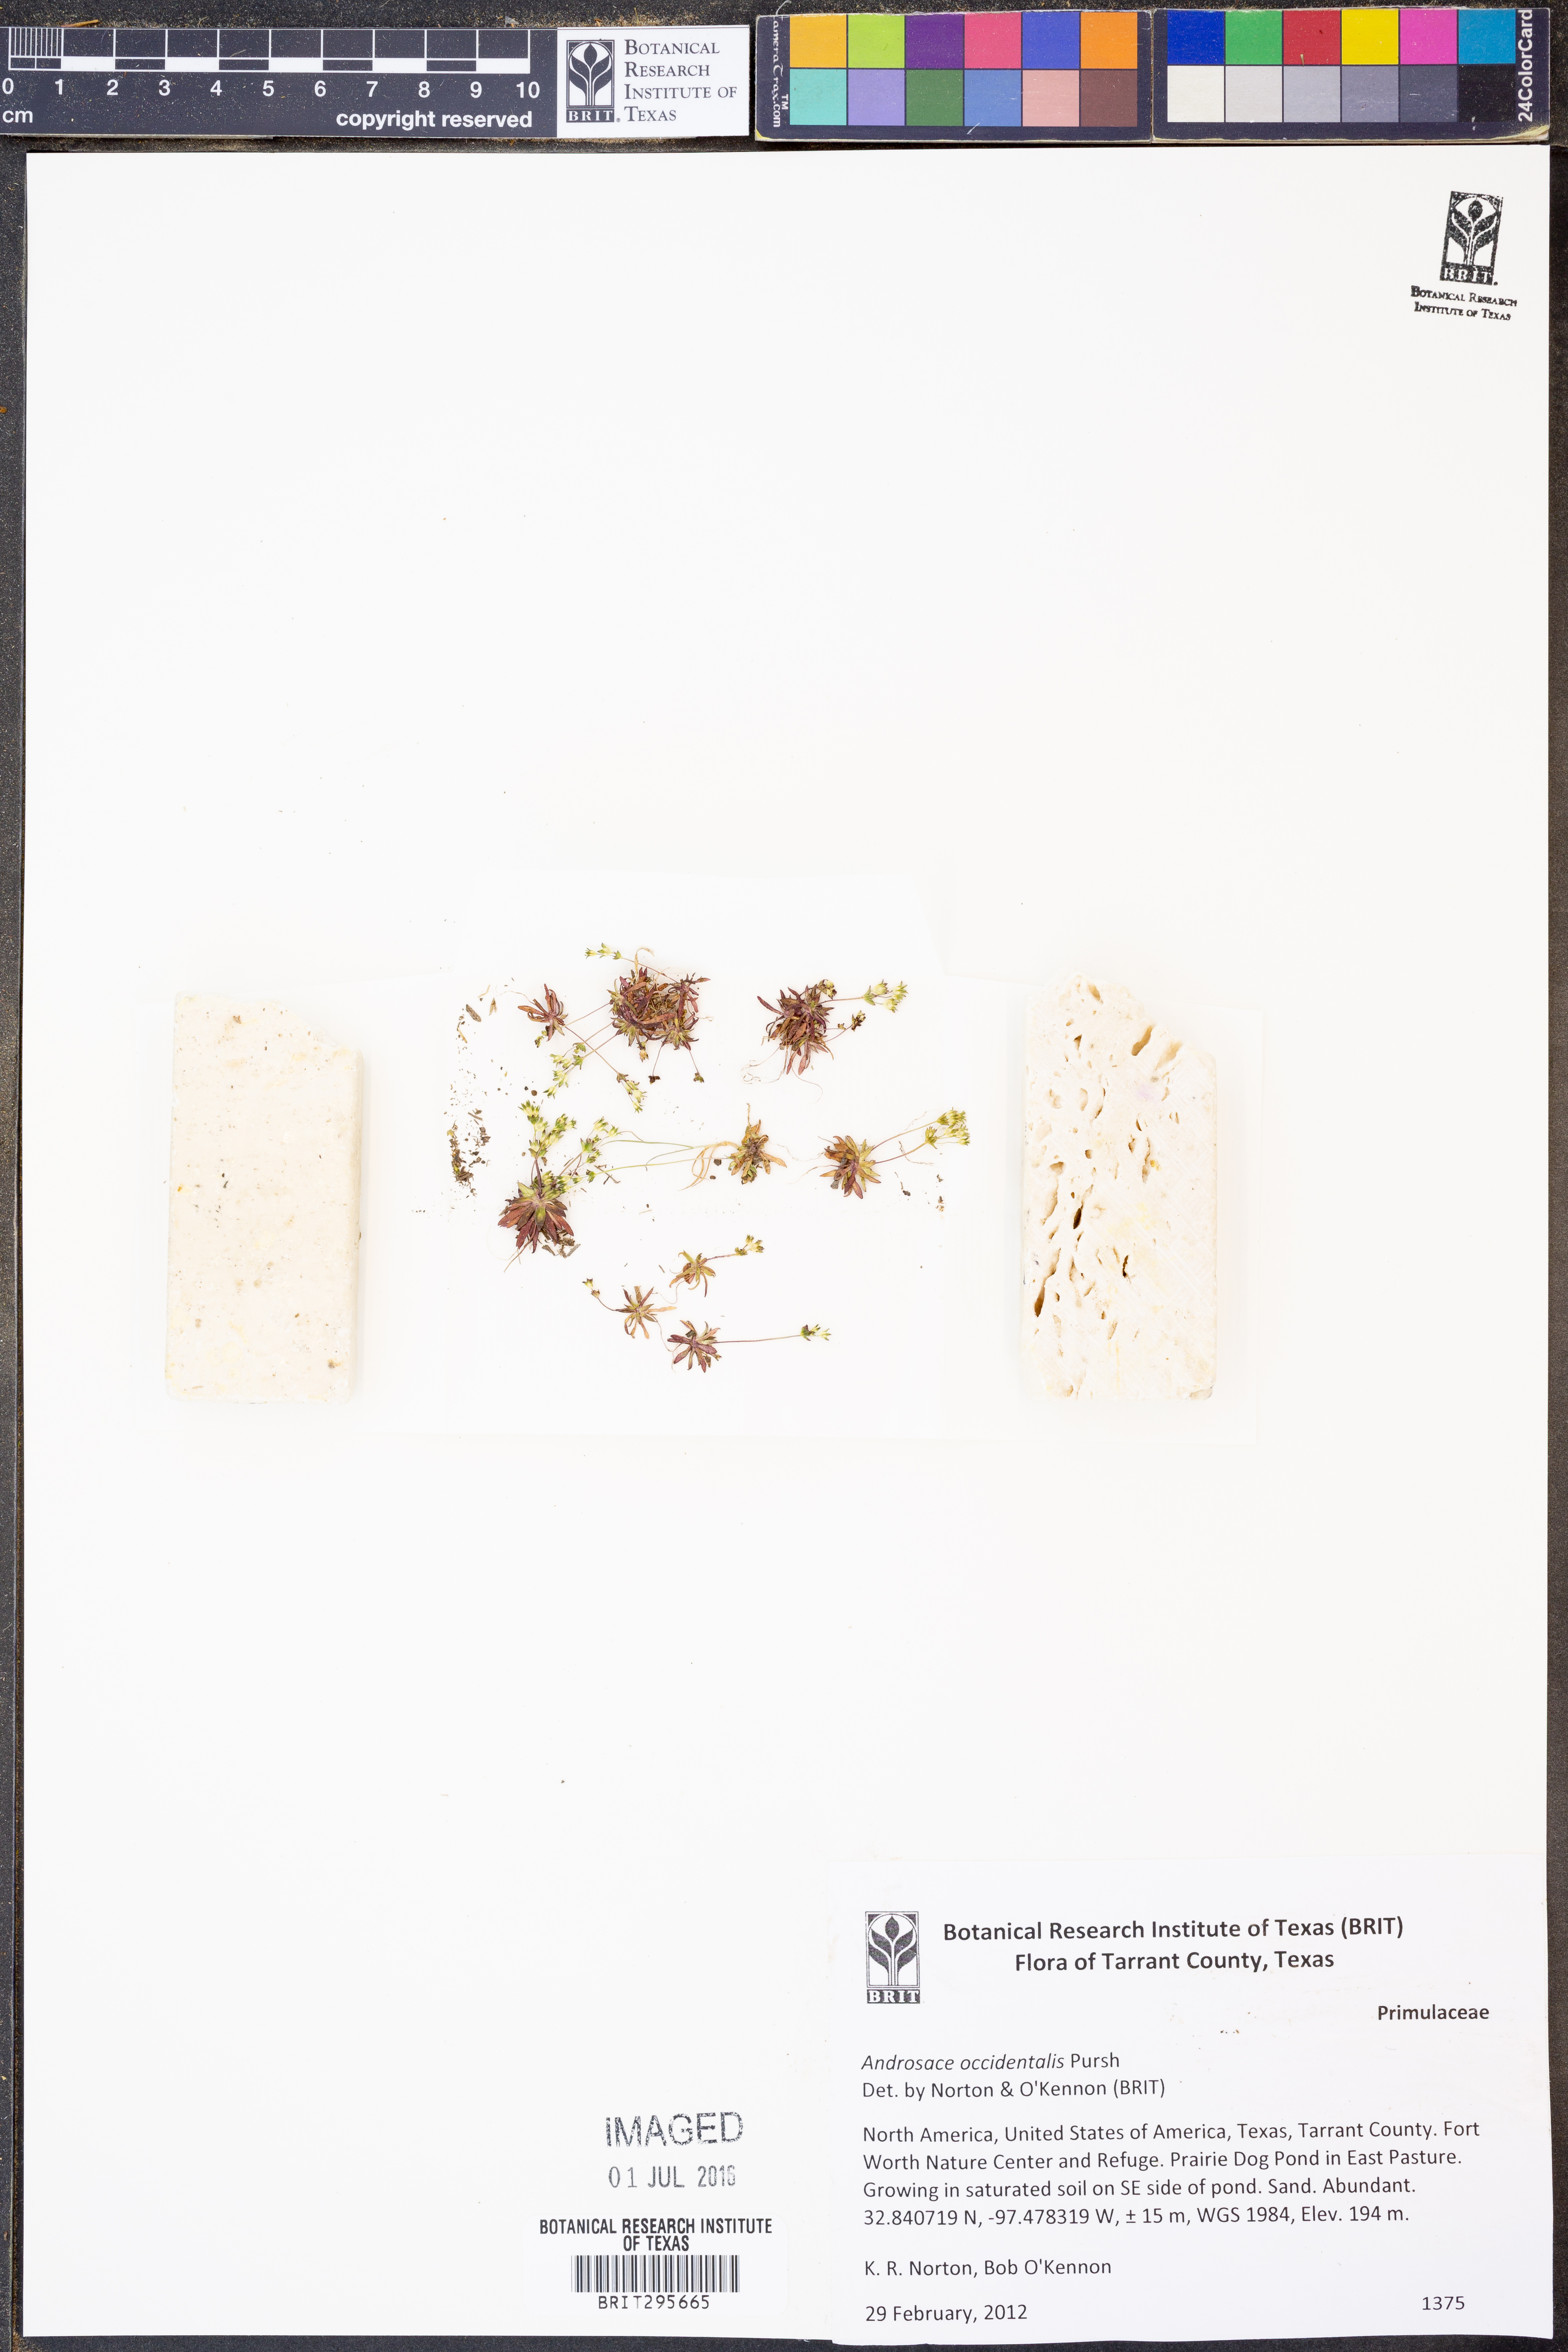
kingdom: Plantae
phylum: Tracheophyta
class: Magnoliopsida
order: Ericales
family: Primulaceae
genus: Androsace
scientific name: Androsace occidentalis
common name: West rock-jasmine
